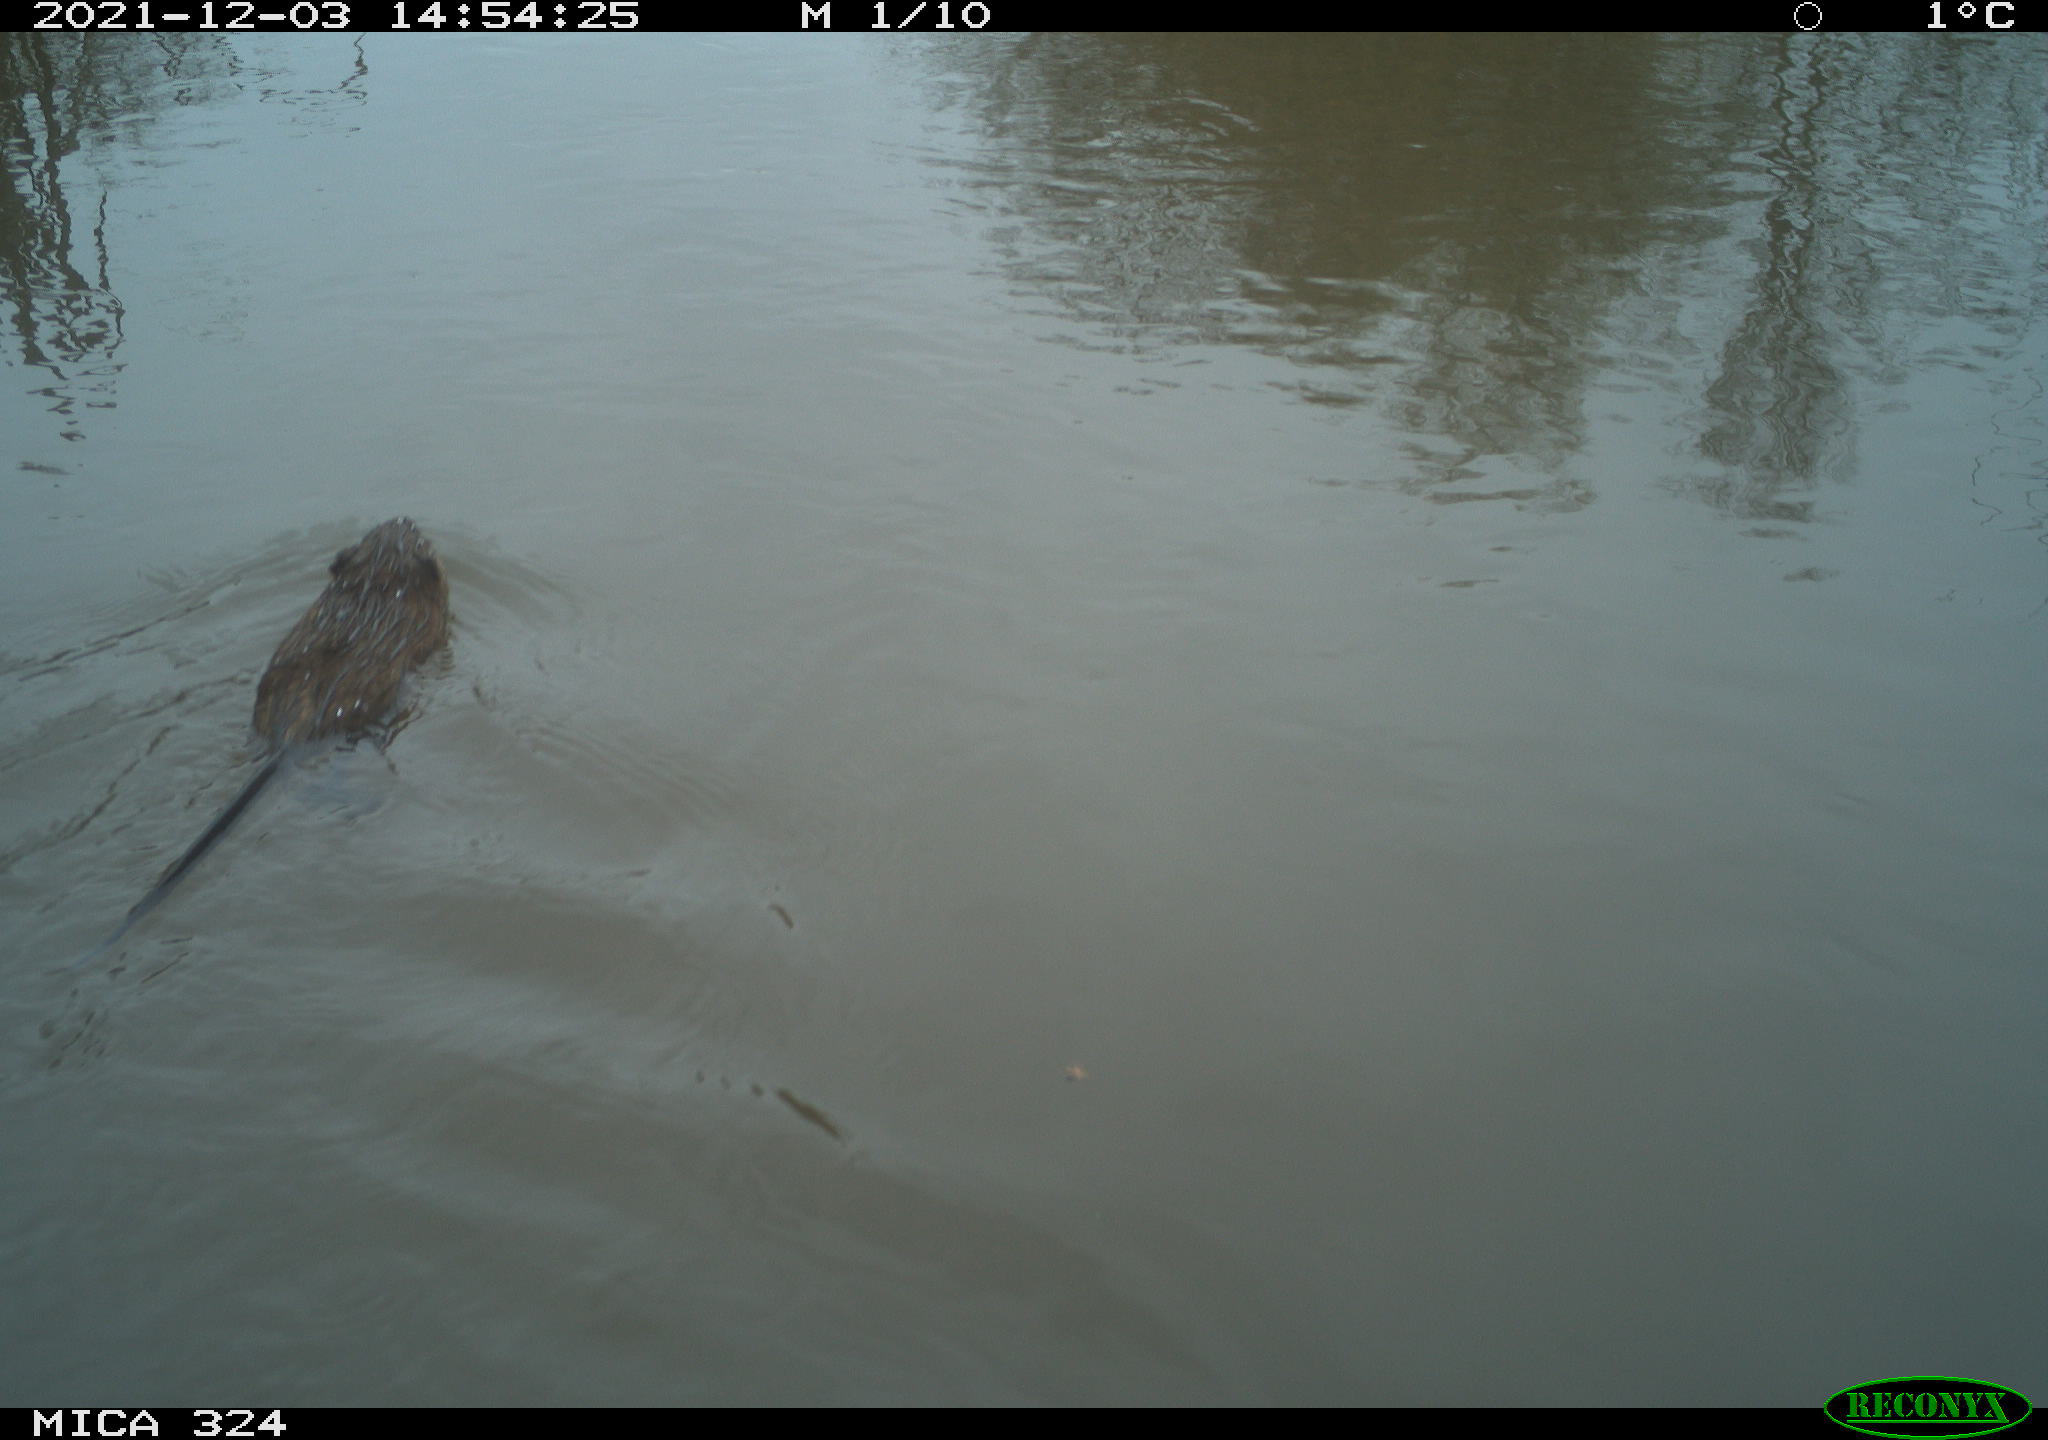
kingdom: Animalia
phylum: Chordata
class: Mammalia
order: Rodentia
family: Cricetidae
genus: Ondatra
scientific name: Ondatra zibethicus
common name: Muskrat
